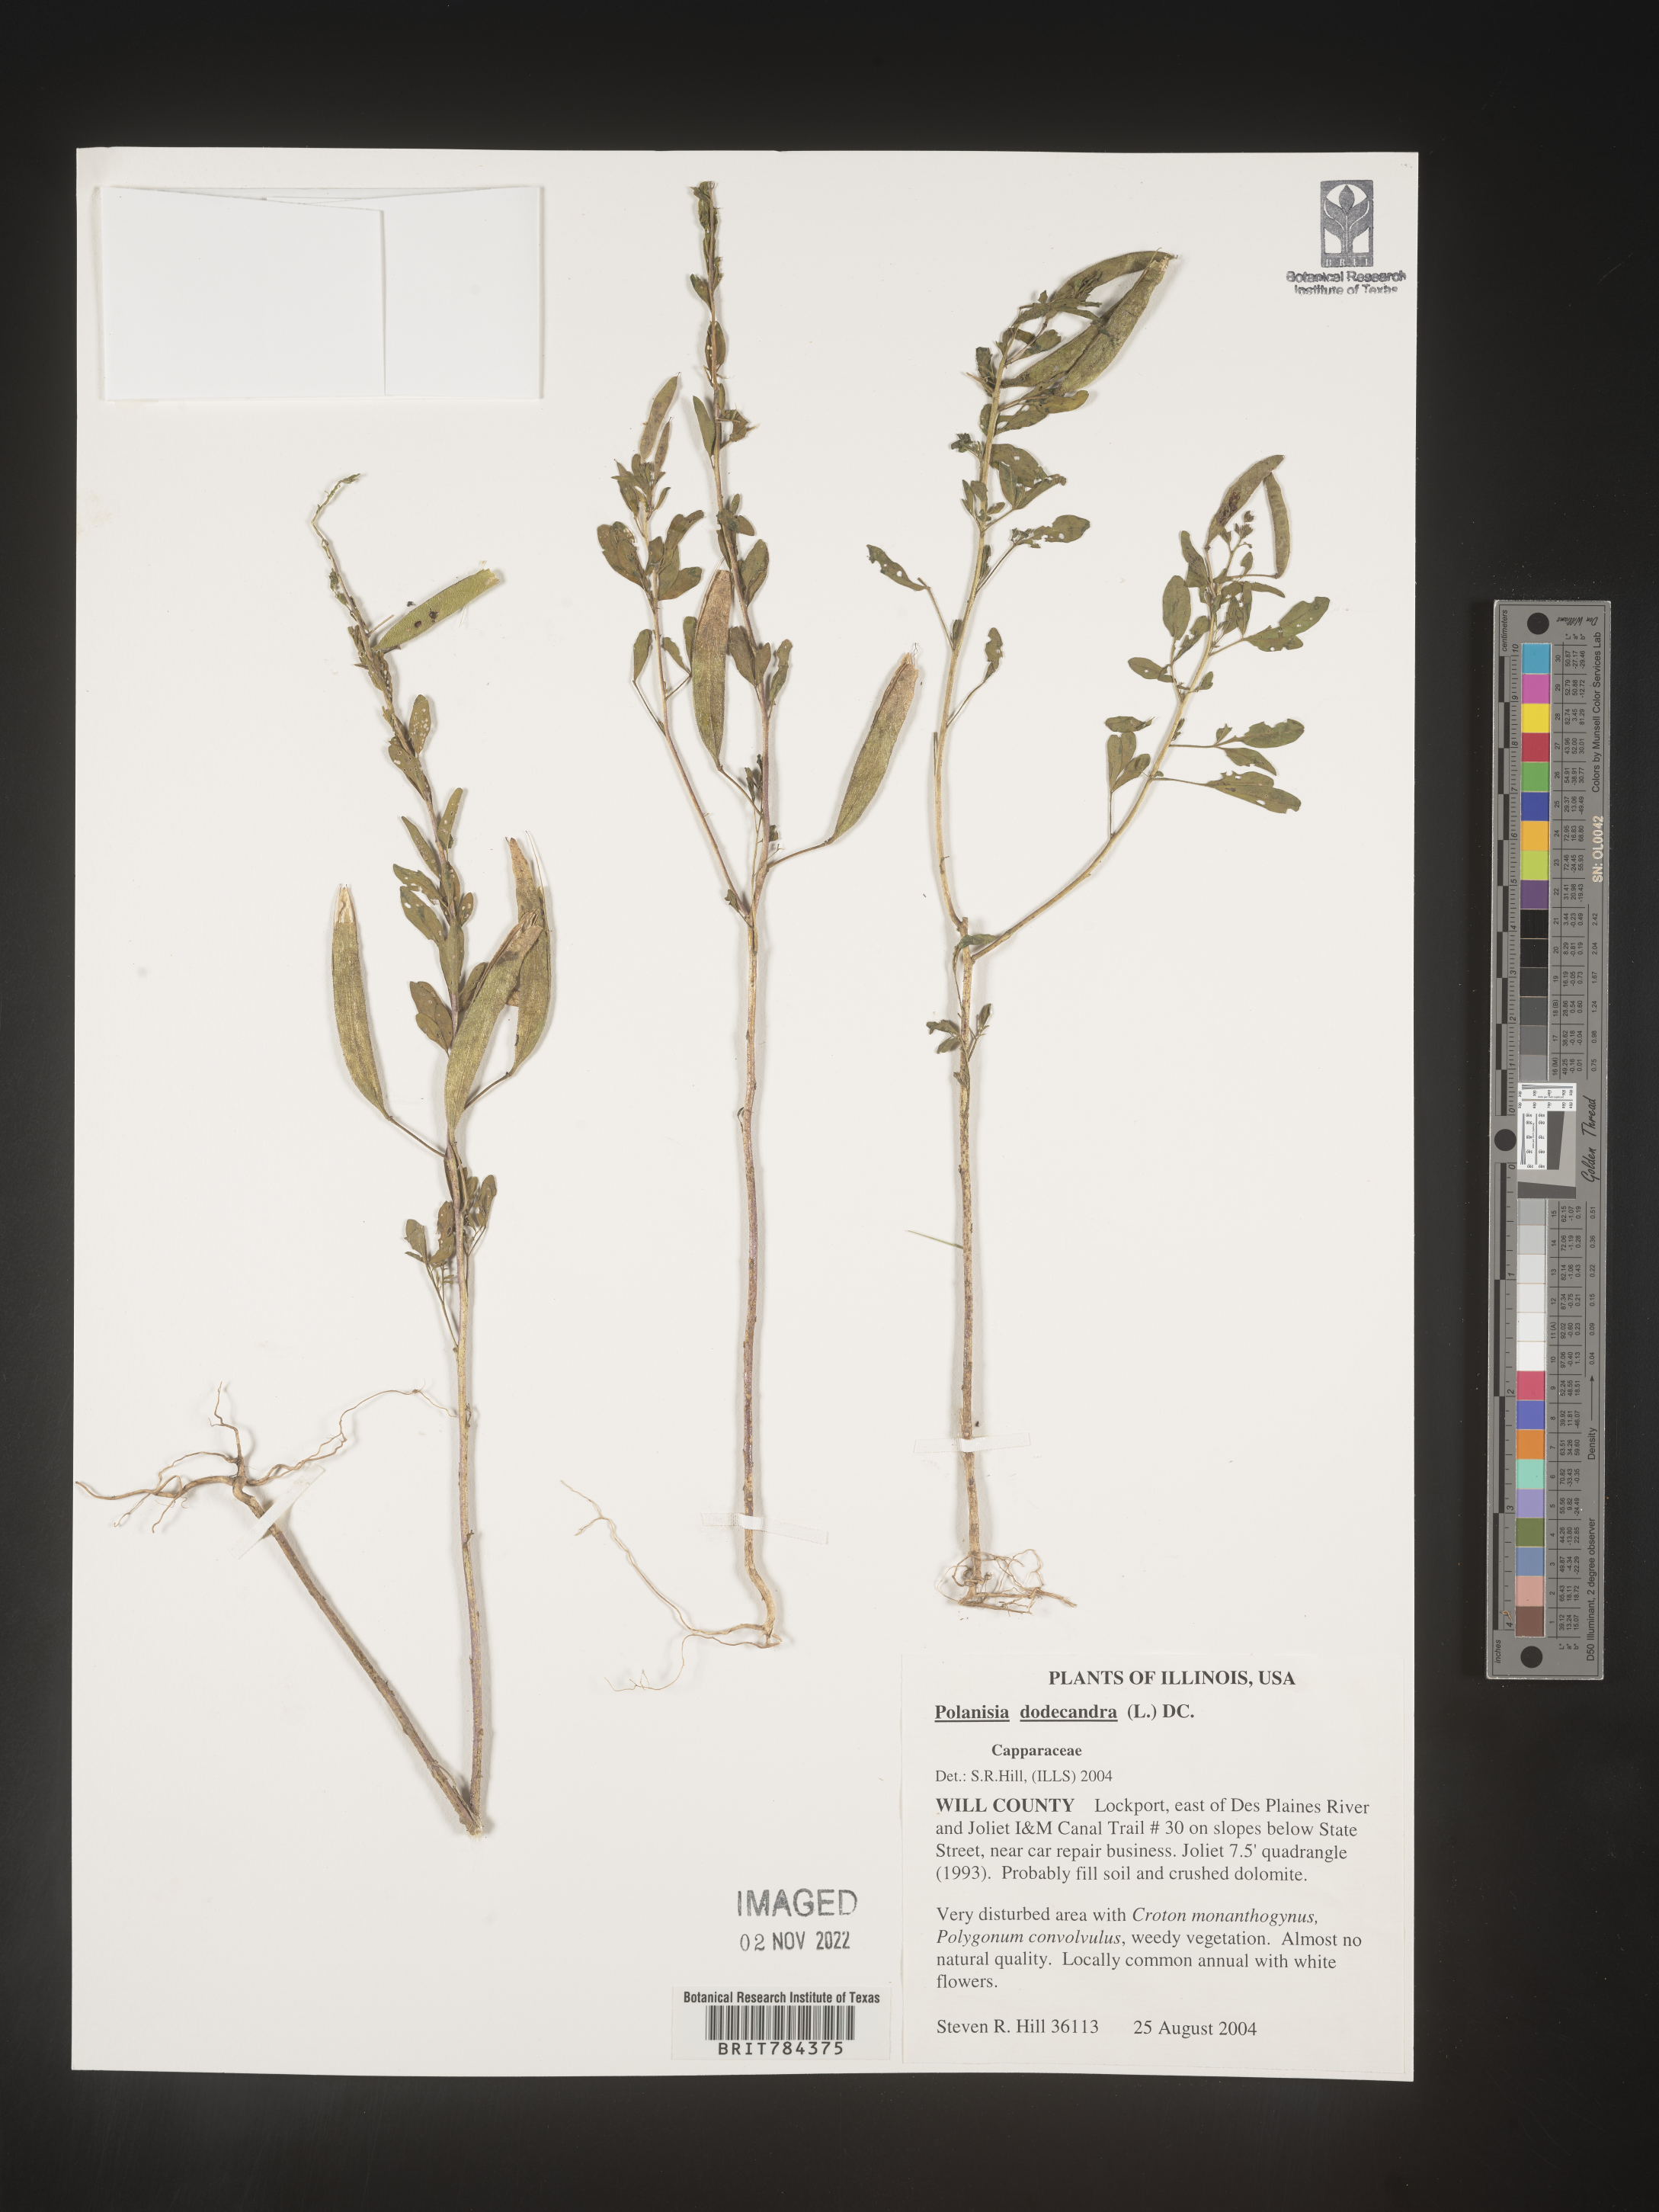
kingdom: Plantae
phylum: Tracheophyta
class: Magnoliopsida
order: Brassicales
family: Cleomaceae
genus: Polanisia
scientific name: Polanisia dodecandra
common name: Clammyweed
